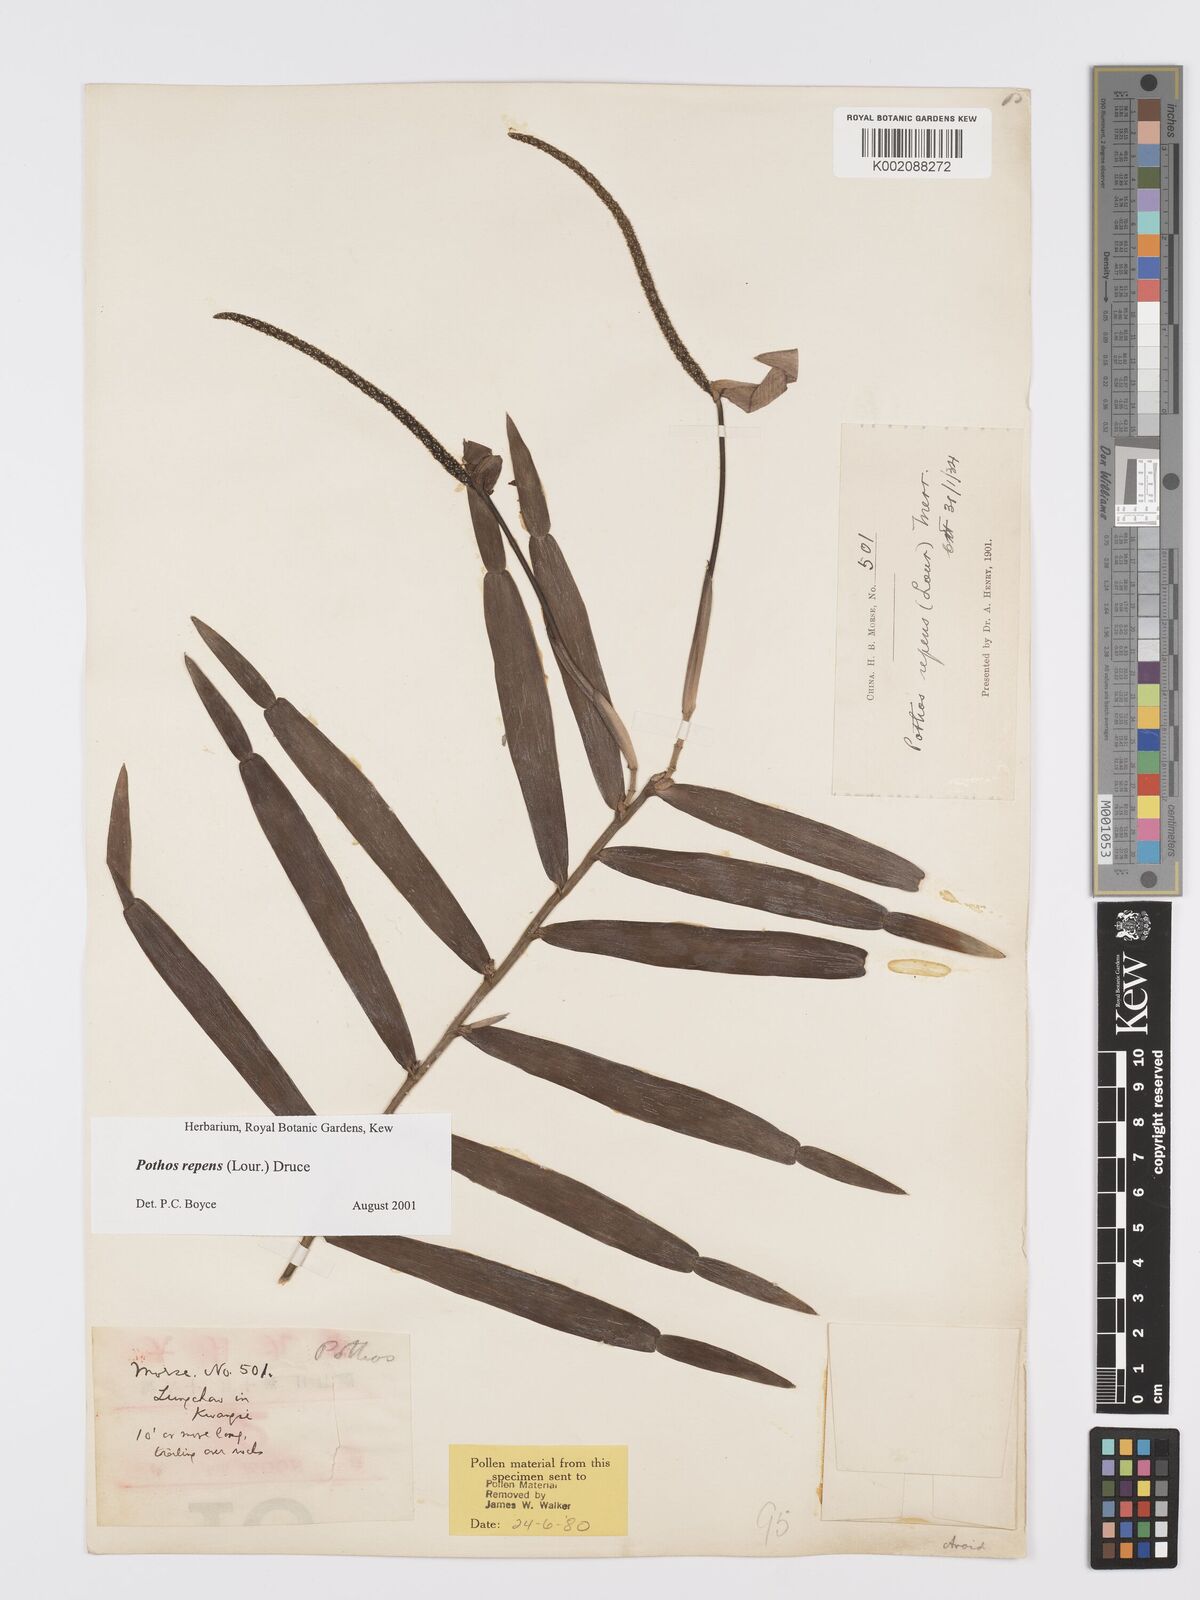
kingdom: Plantae
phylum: Tracheophyta
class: Liliopsida
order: Alismatales
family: Araceae
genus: Pothos
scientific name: Pothos repens
